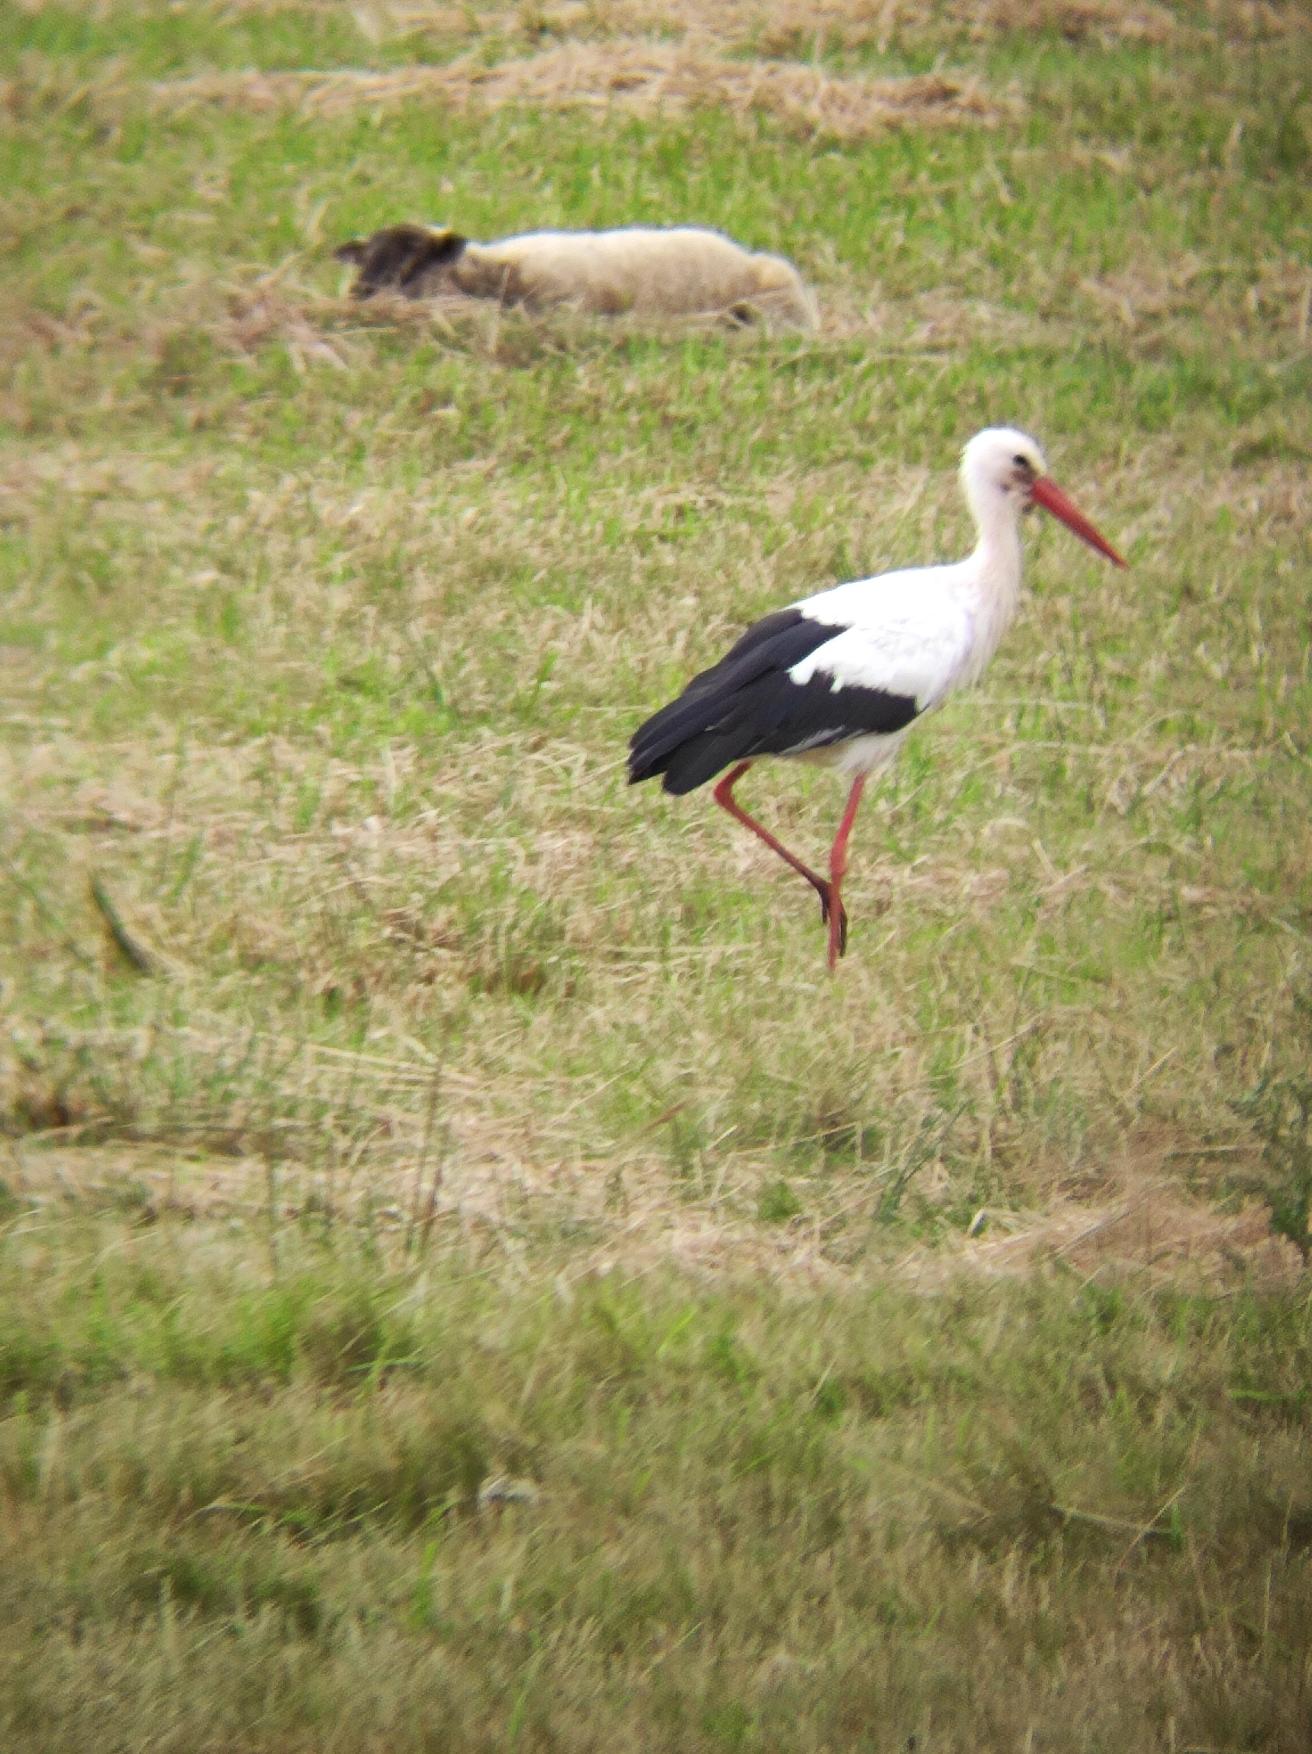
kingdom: Animalia
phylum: Chordata
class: Aves
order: Ciconiiformes
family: Ciconiidae
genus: Ciconia
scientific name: Ciconia ciconia
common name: Hvid stork
